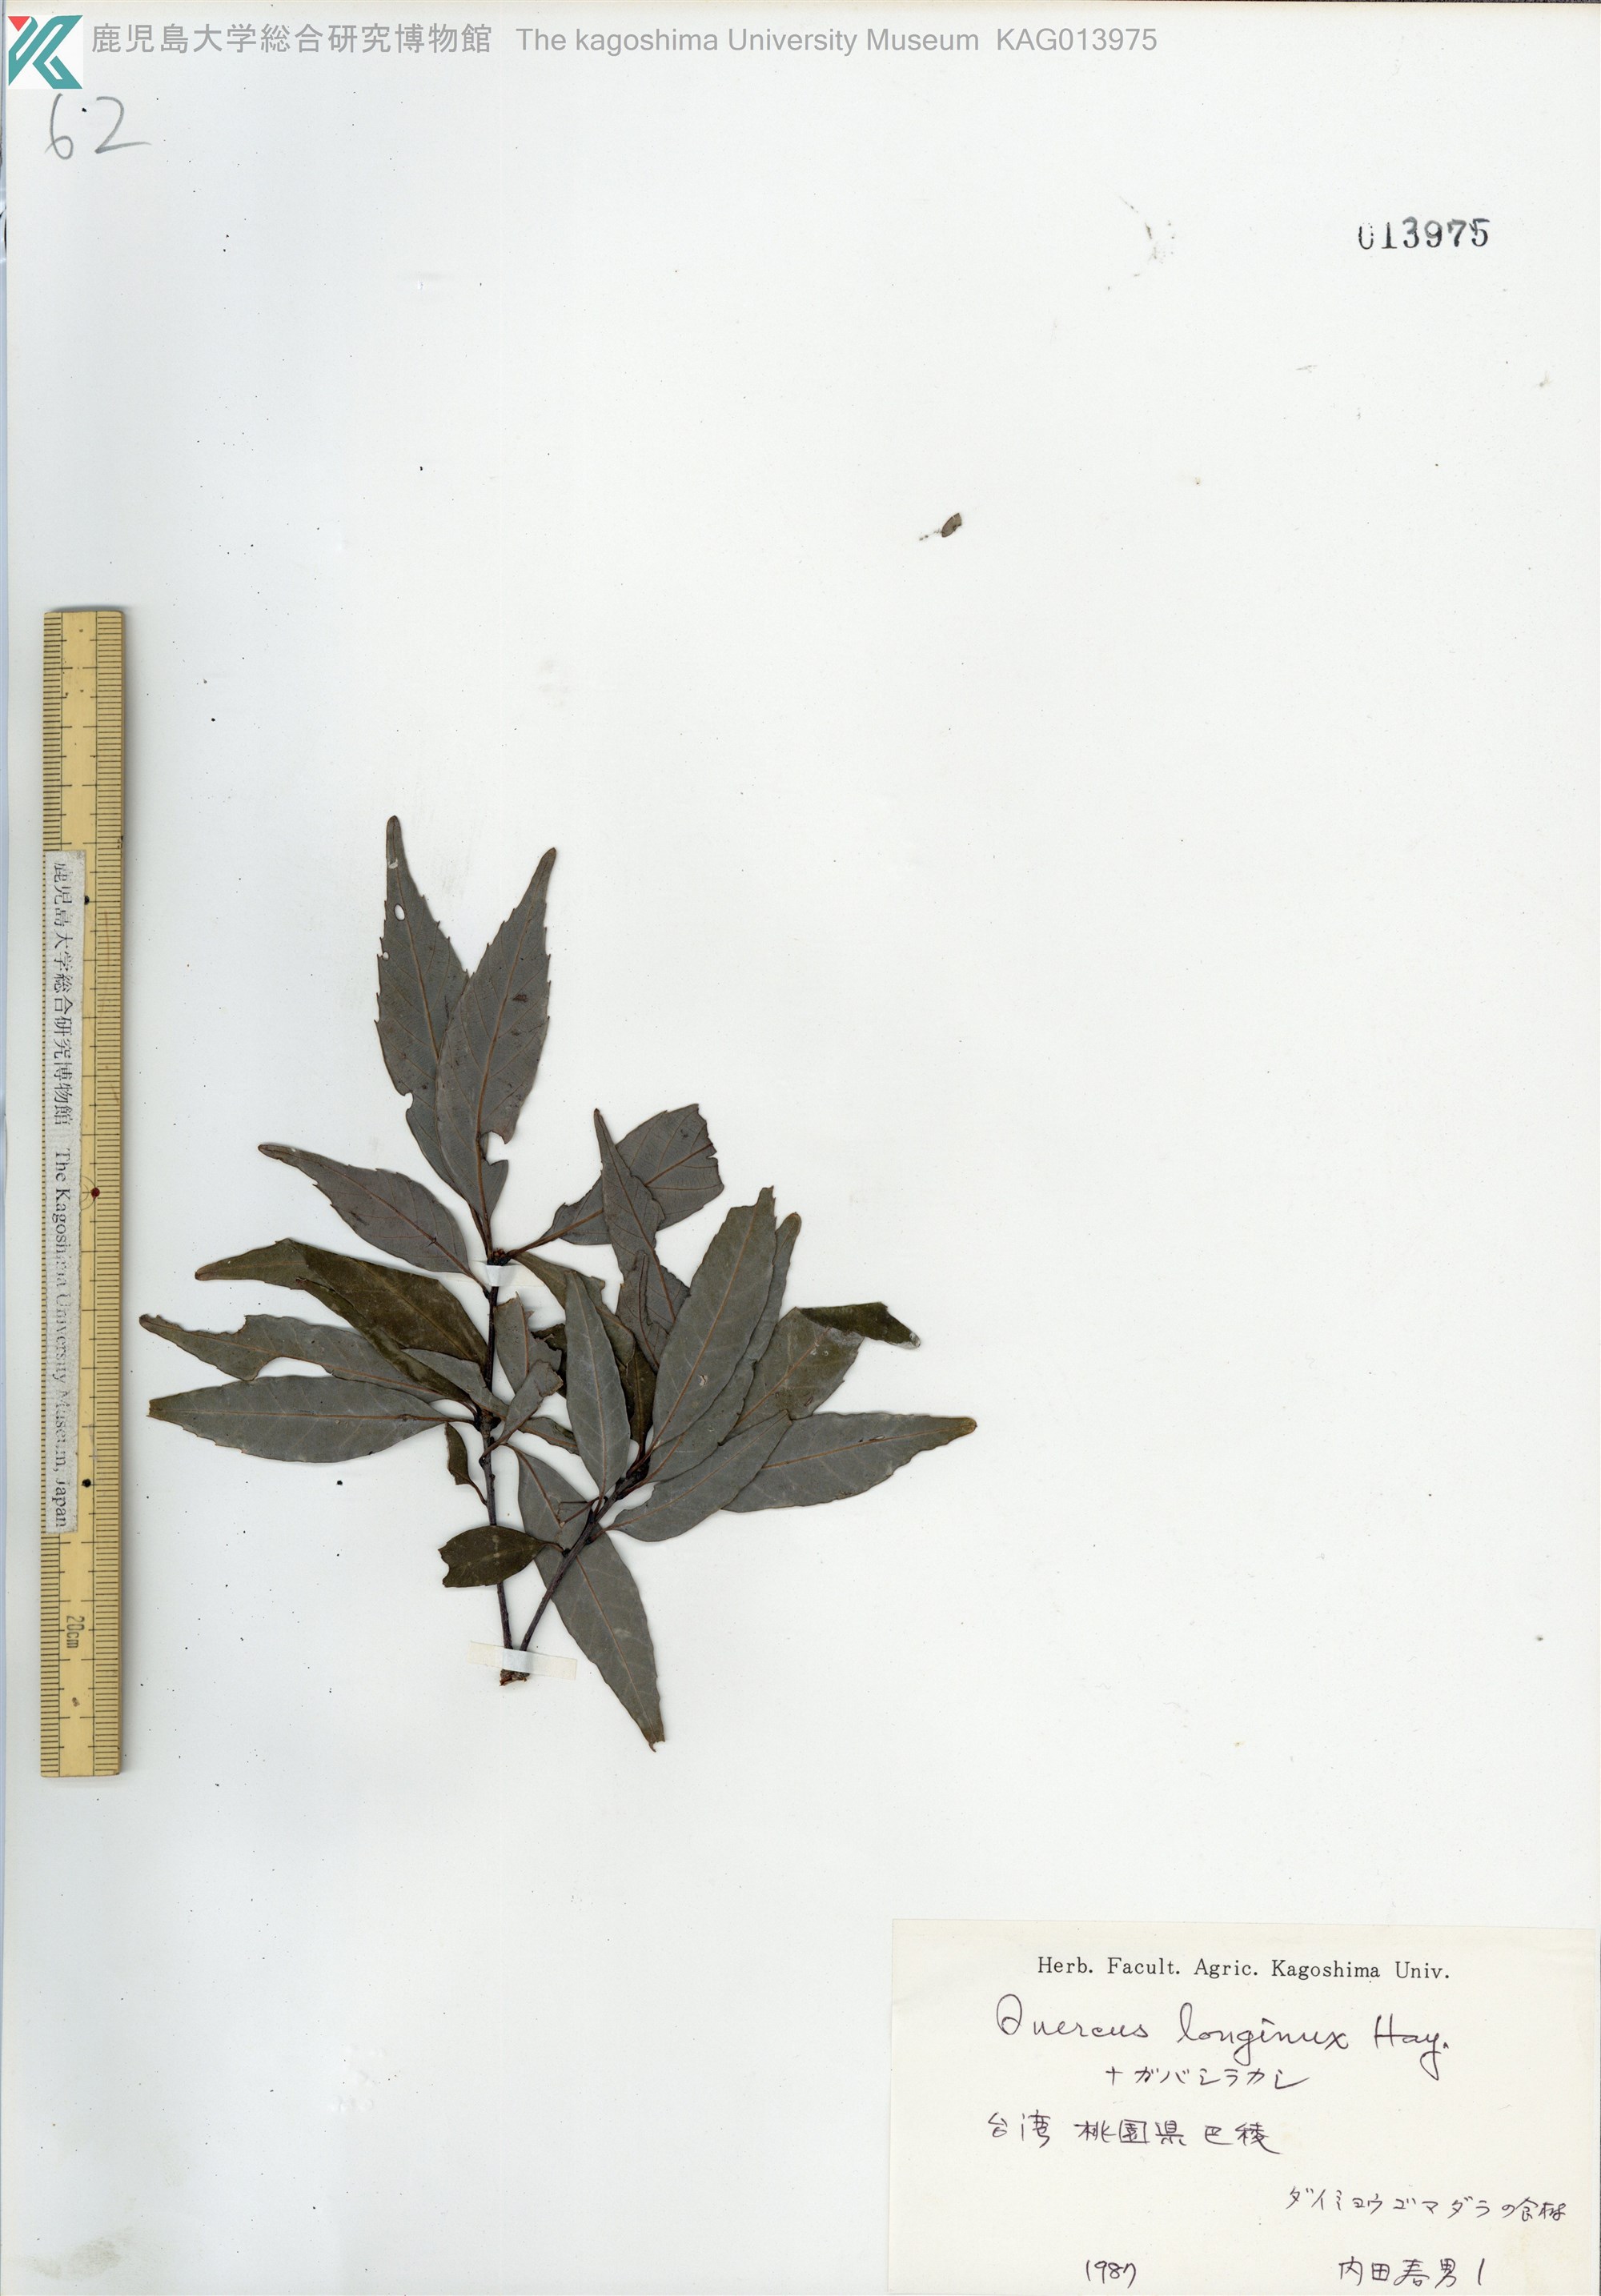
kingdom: Plantae
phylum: Tracheophyta
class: Magnoliopsida
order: Fagales
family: Fagaceae
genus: Quercus
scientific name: Quercus longinux
